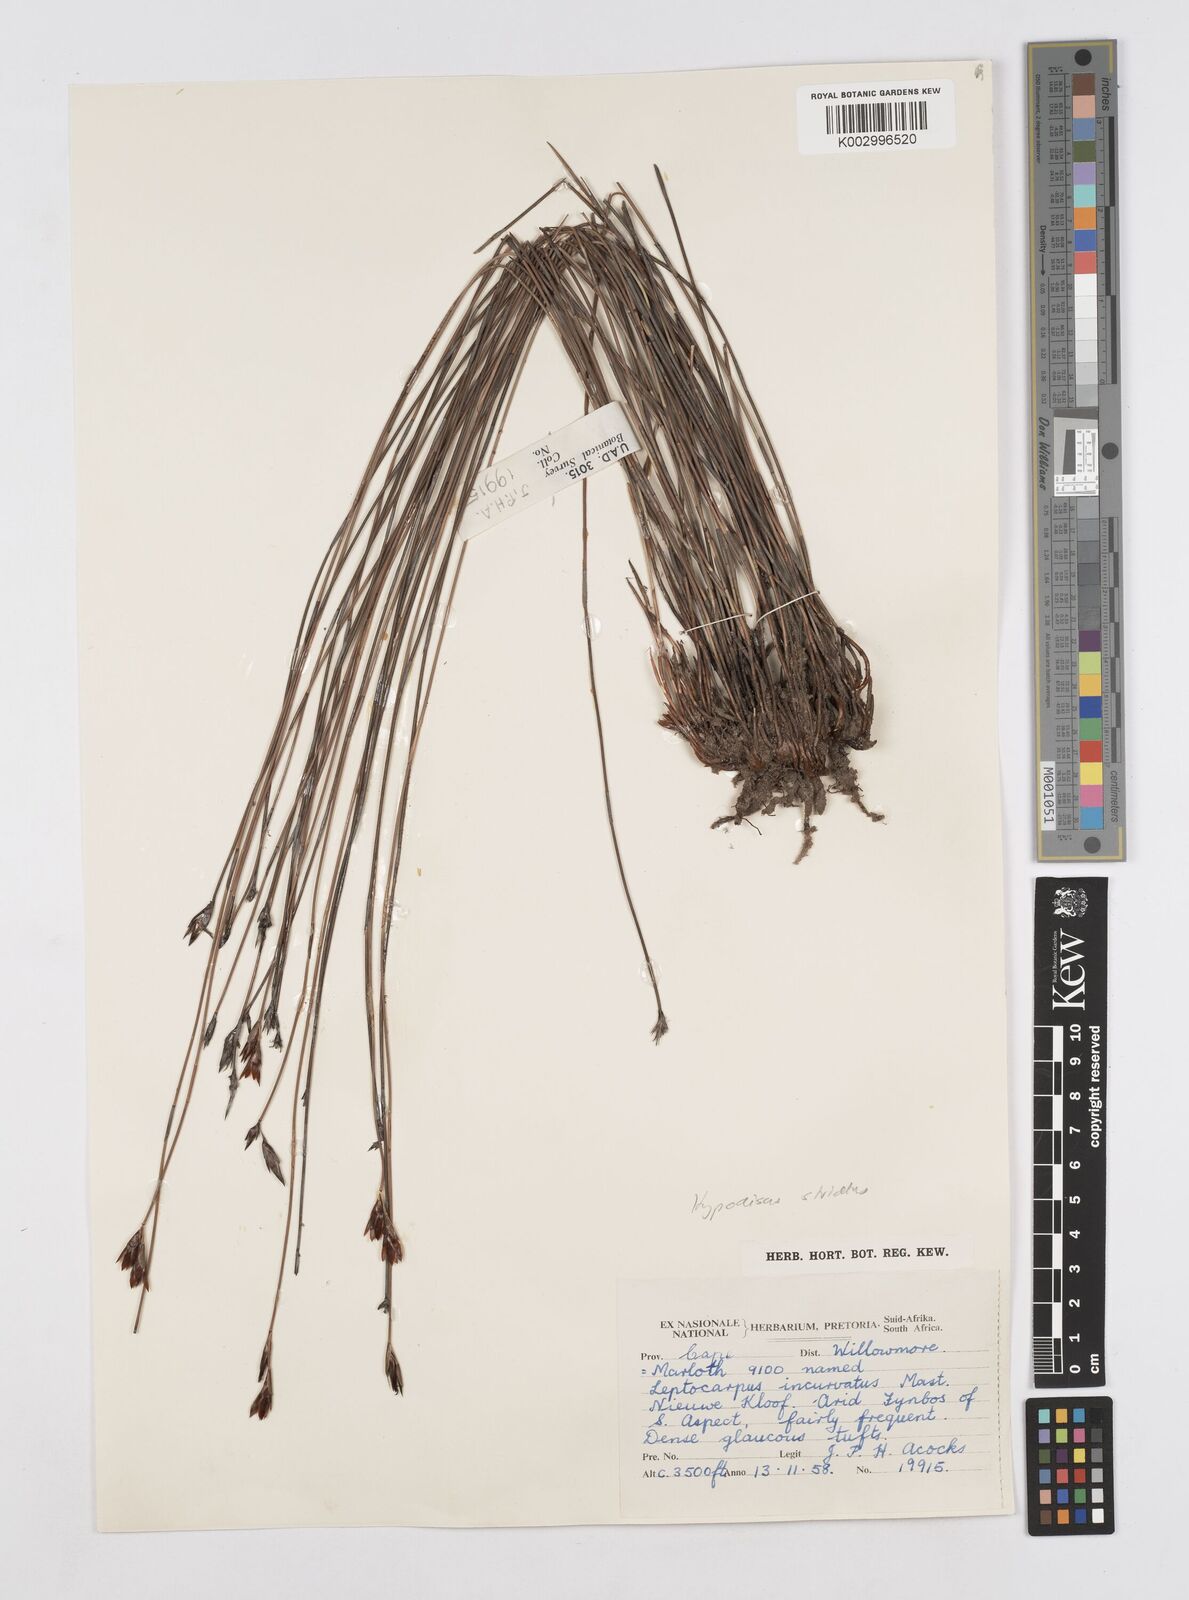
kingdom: Plantae
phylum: Tracheophyta
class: Liliopsida
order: Poales
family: Restionaceae
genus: Hypodiscus
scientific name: Hypodiscus striatus
